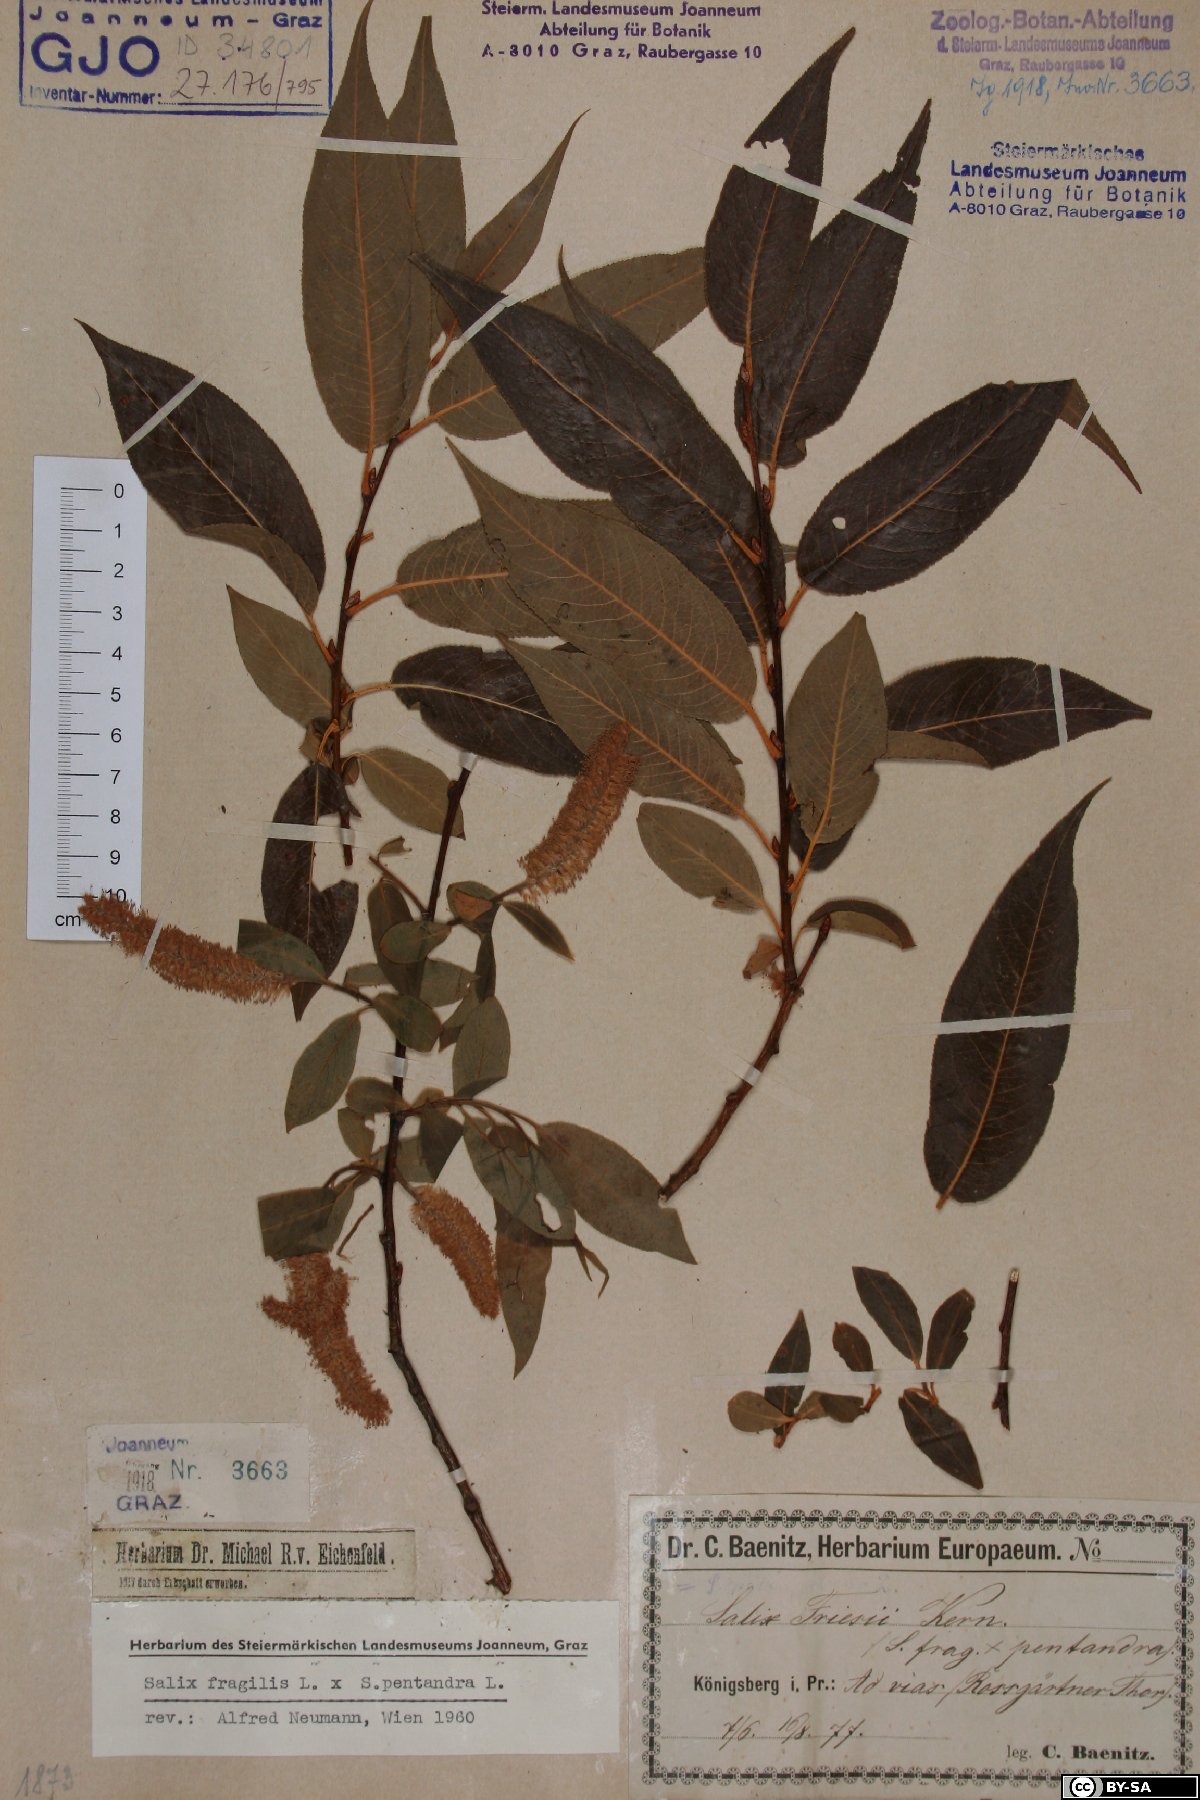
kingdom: Plantae
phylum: Tracheophyta
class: Magnoliopsida
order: Malpighiales
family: Salicaceae
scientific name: Salicaceae
